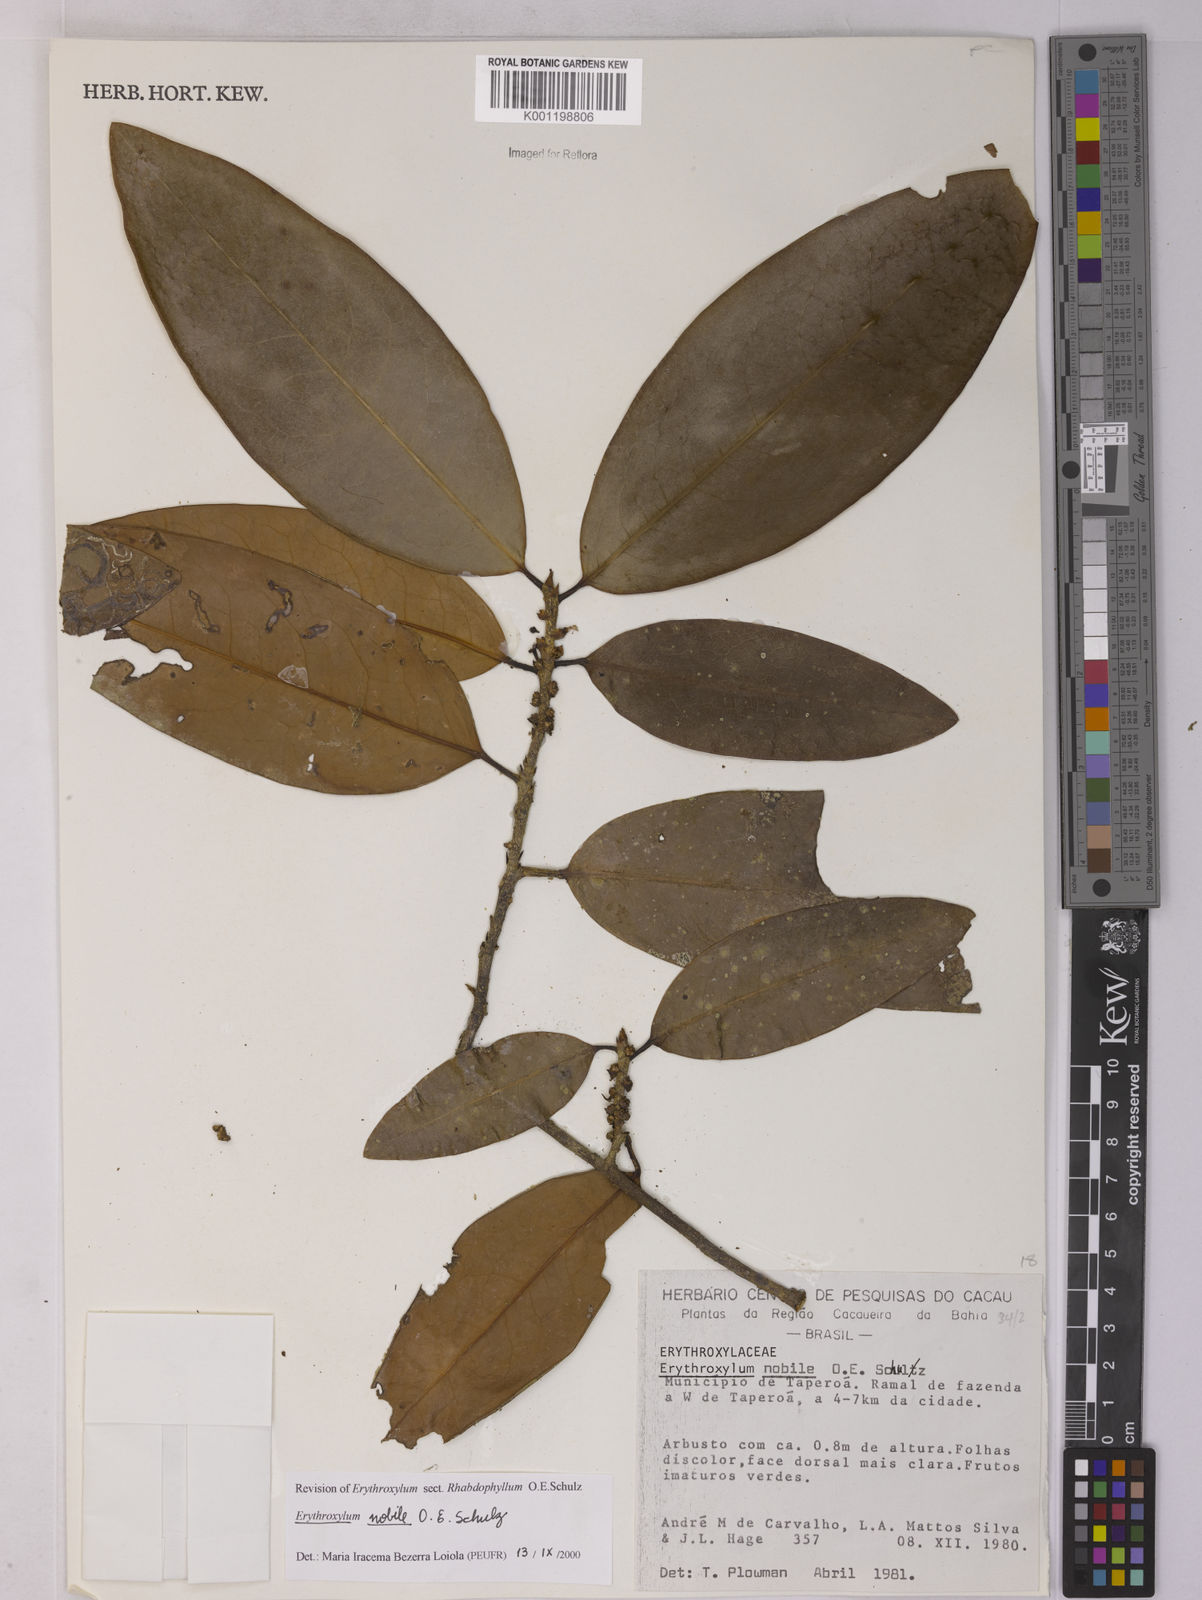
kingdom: Plantae
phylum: Tracheophyta
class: Magnoliopsida
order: Malpighiales
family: Erythroxylaceae
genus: Erythroxylum
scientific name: Erythroxylum nobile
